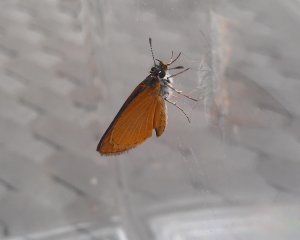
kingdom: Animalia
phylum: Arthropoda
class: Insecta
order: Lepidoptera
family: Hesperiidae
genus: Ancyloxypha
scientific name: Ancyloxypha numitor
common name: Least Skipper
